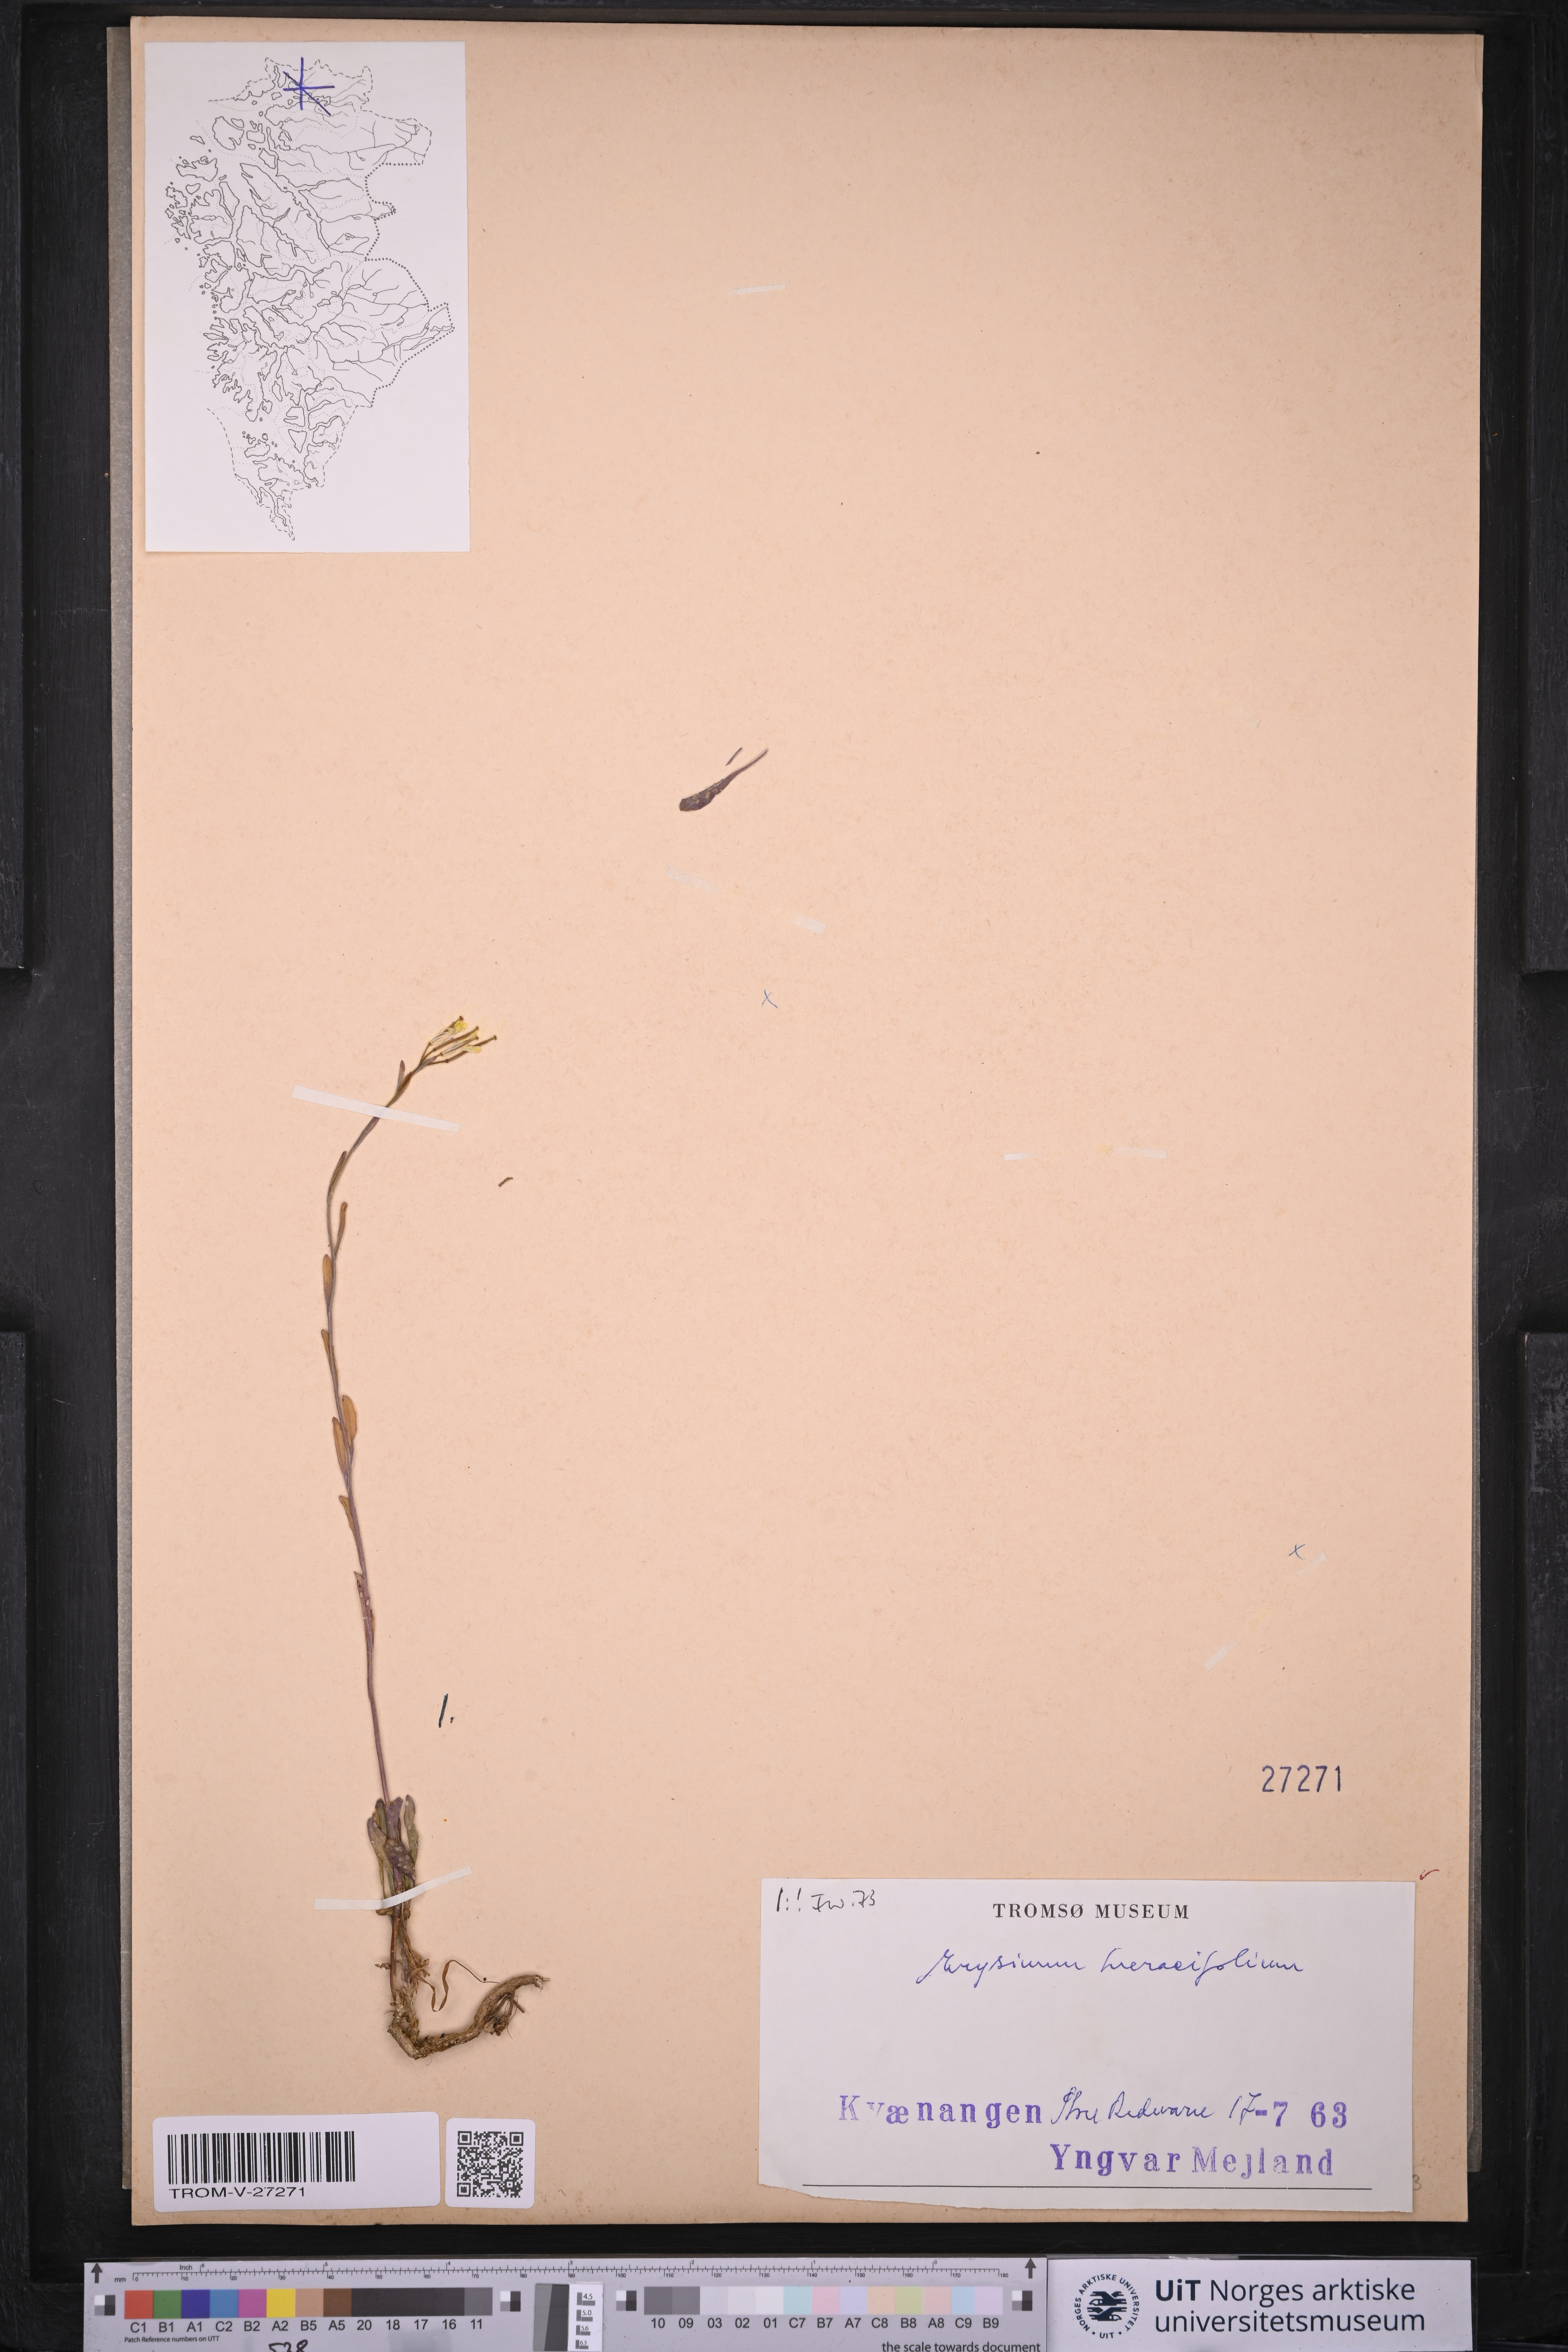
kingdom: Plantae
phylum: Tracheophyta
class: Magnoliopsida
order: Brassicales
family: Brassicaceae
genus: Erysimum
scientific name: Erysimum virgatum
